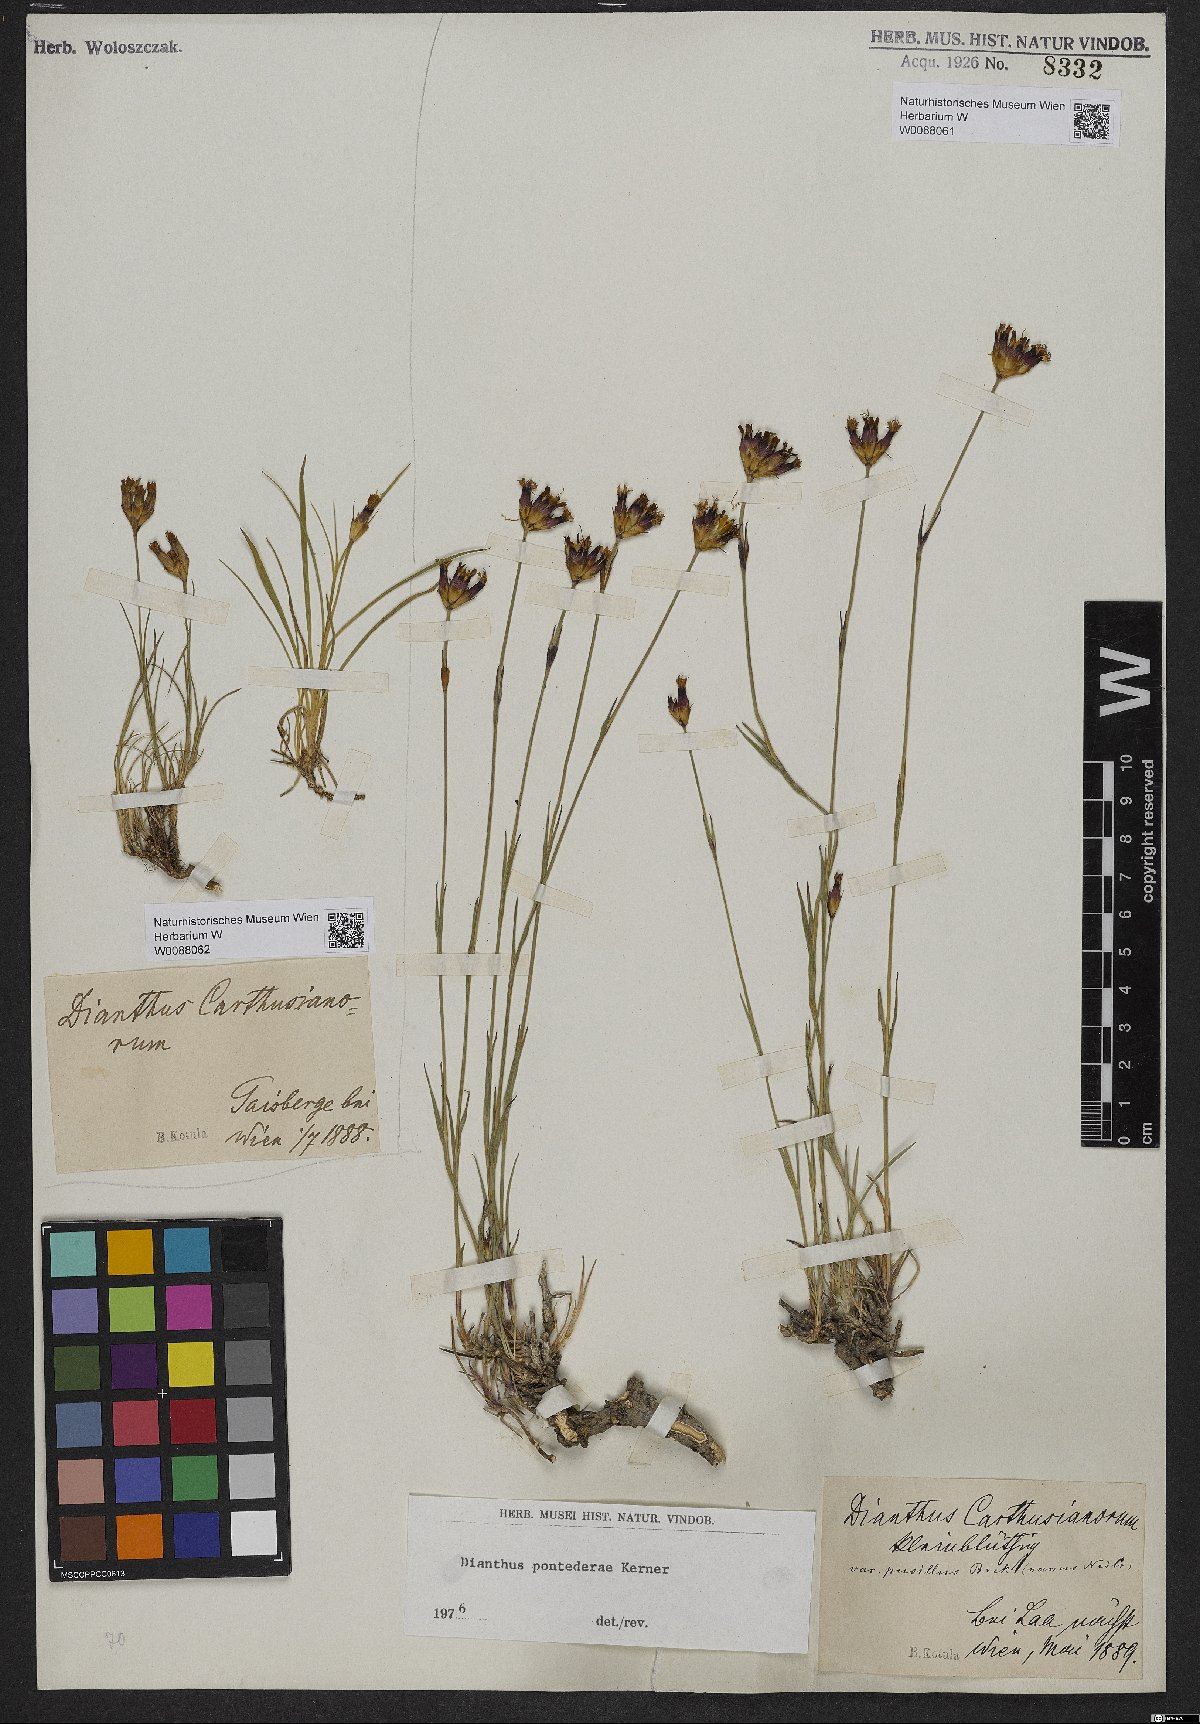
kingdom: Plantae
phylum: Tracheophyta
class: Magnoliopsida
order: Caryophyllales
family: Caryophyllaceae
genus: Dianthus
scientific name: Dianthus pontederae
